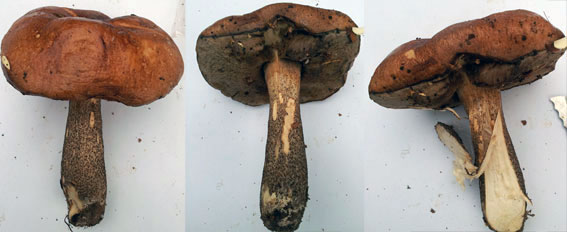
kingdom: Fungi
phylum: Basidiomycota
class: Agaricomycetes
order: Boletales
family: Boletaceae
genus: Leccinum
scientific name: Leccinum scabrum
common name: brun skælrørhat
